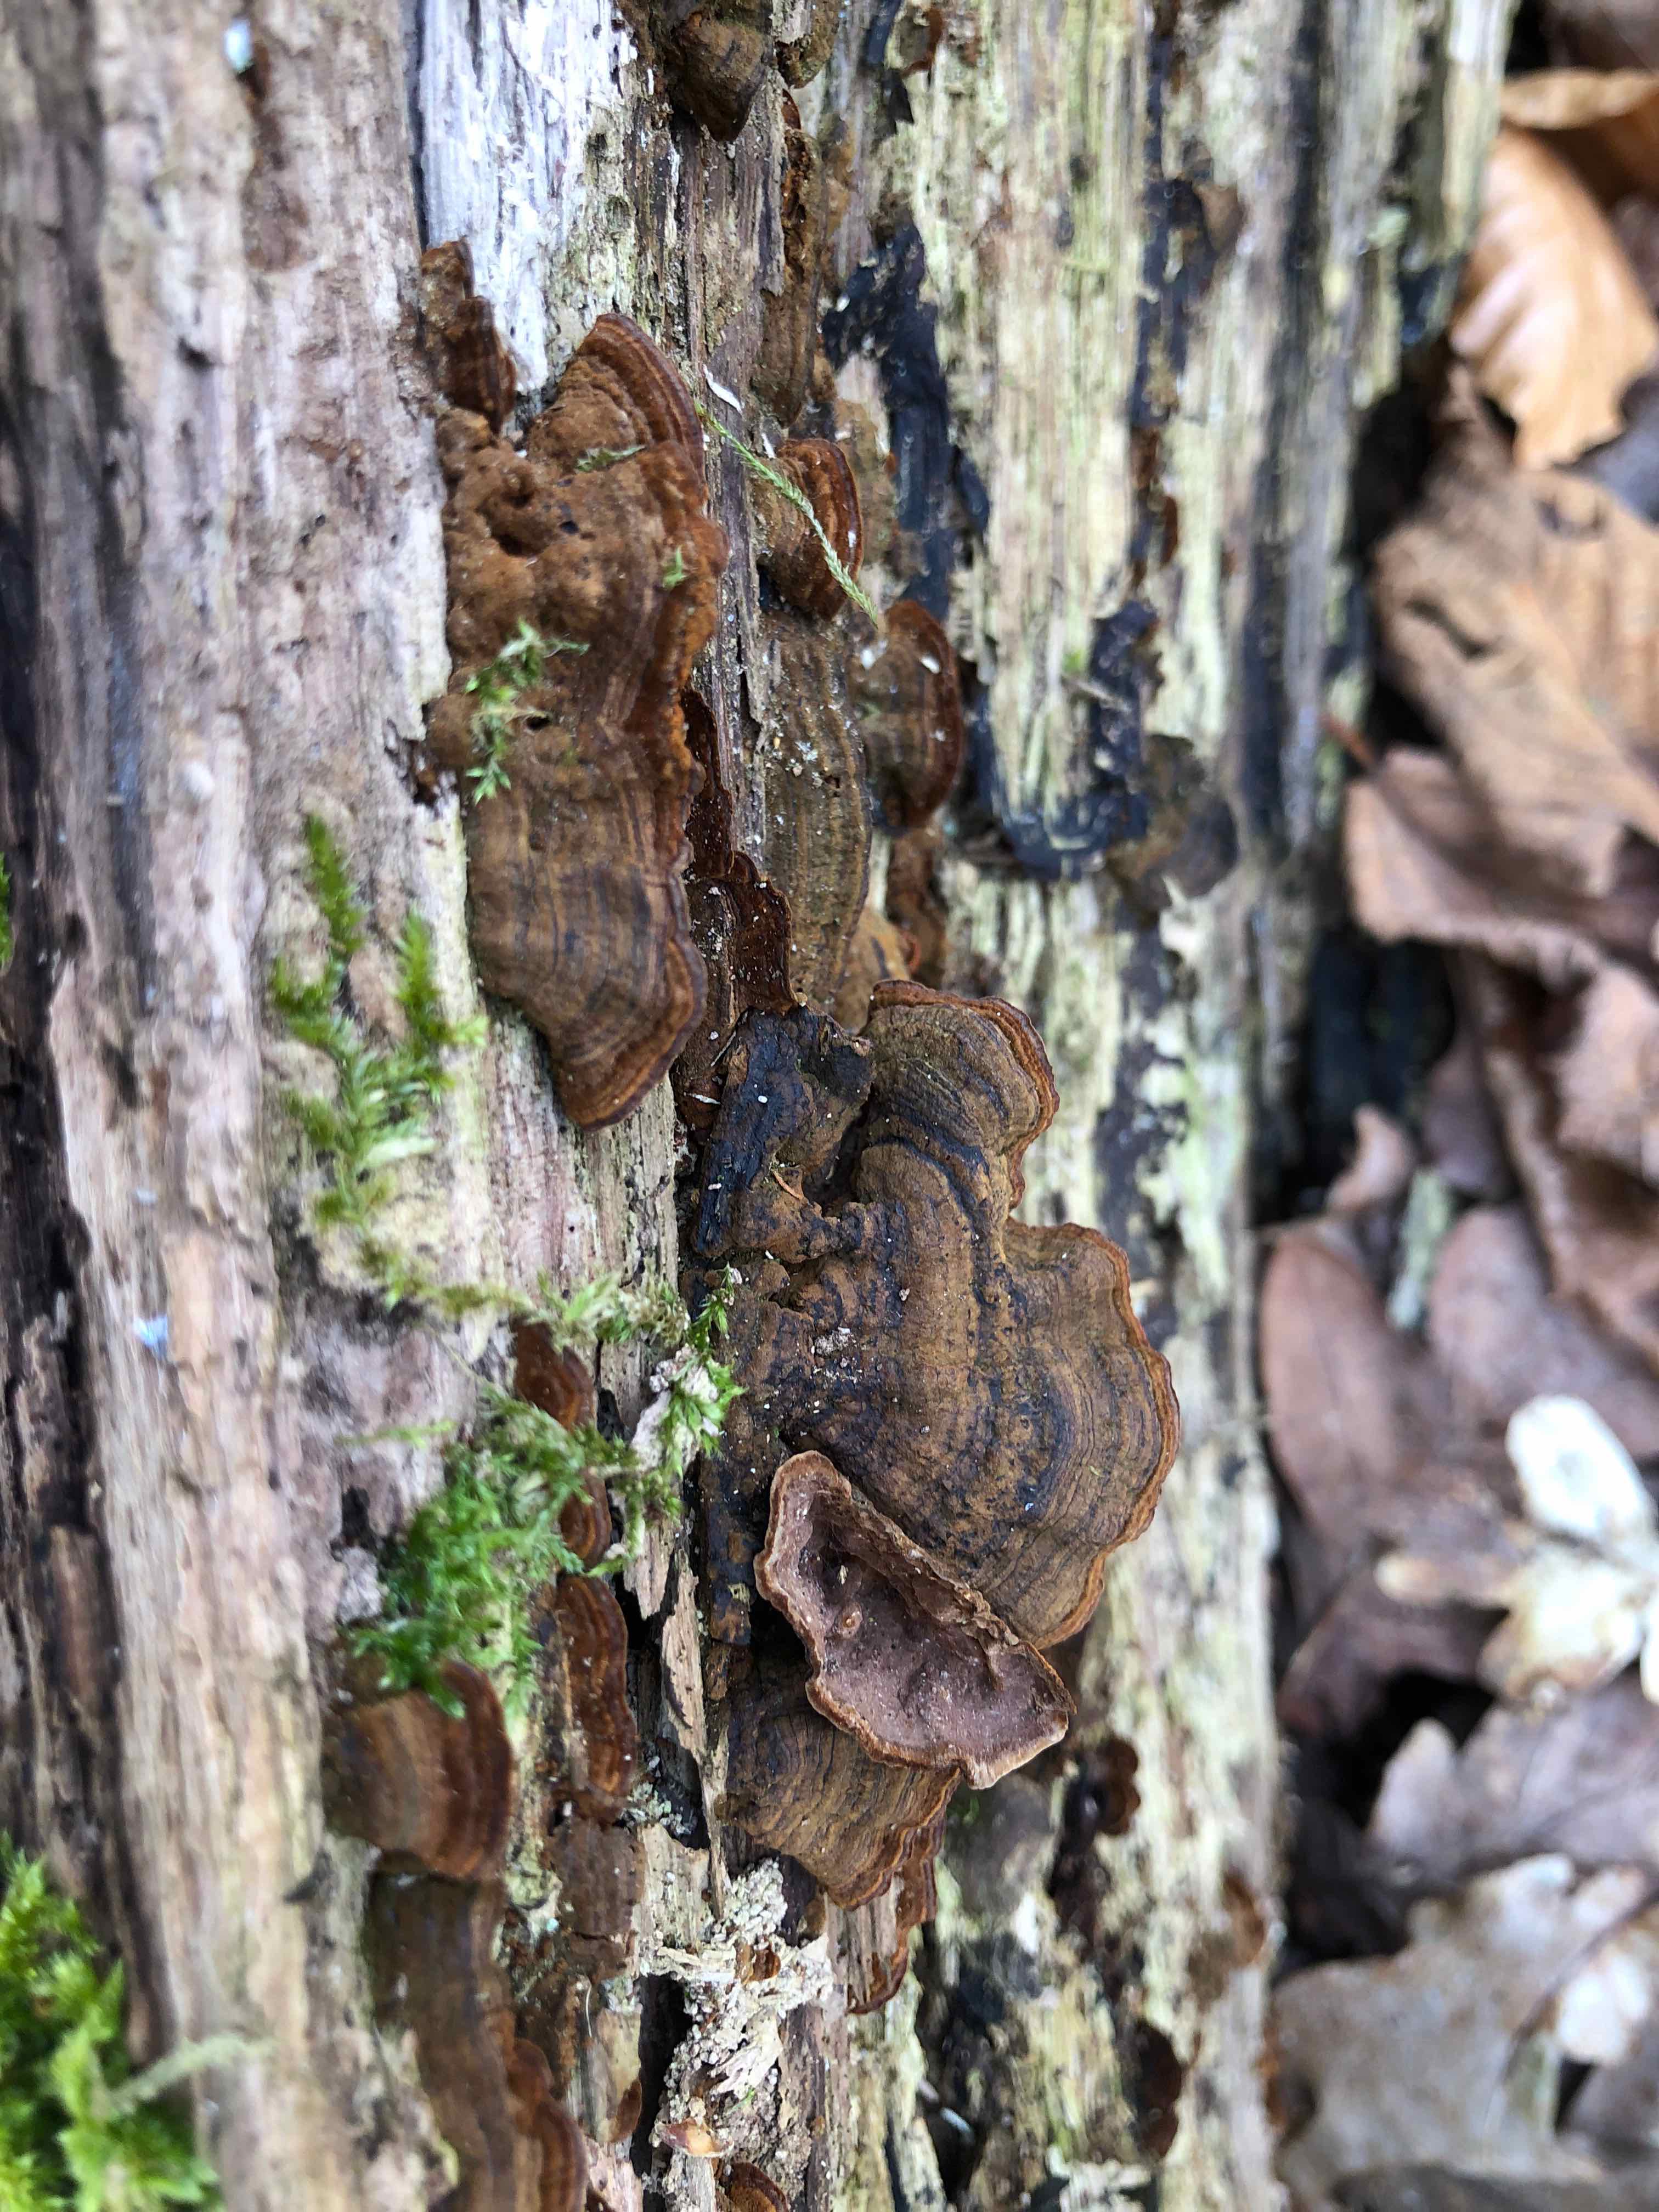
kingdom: Fungi
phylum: Basidiomycota
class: Agaricomycetes
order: Hymenochaetales
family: Hymenochaetaceae
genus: Hymenochaete
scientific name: Hymenochaete rubiginosa
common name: stiv ruslædersvamp
